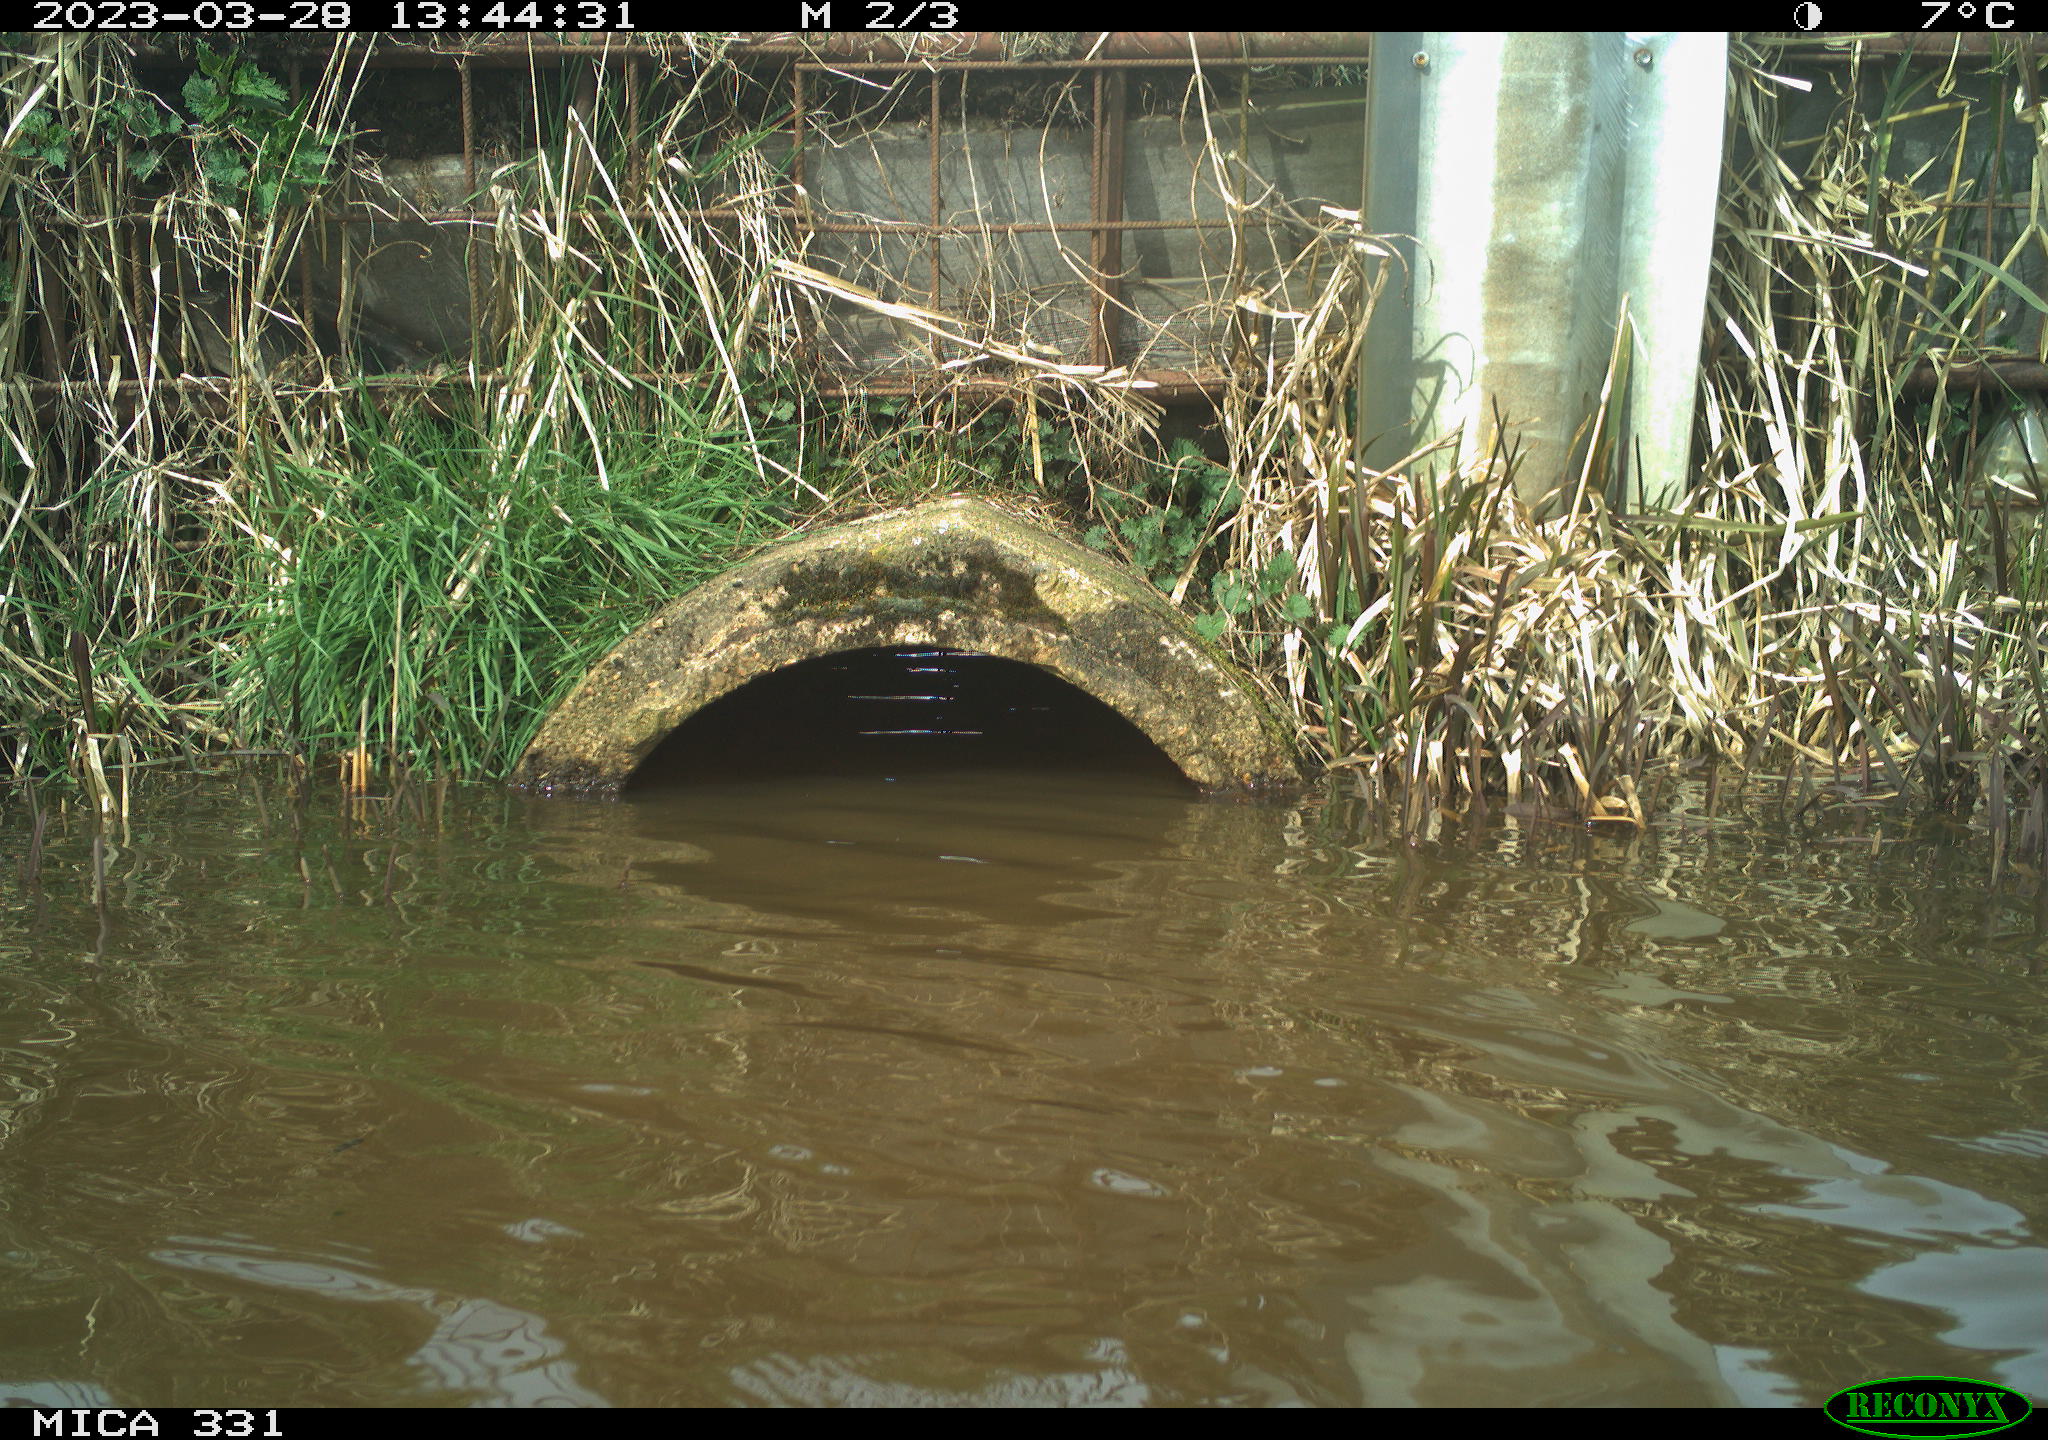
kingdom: Animalia
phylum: Chordata
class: Aves
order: Gruiformes
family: Rallidae
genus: Fulica
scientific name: Fulica atra
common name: Eurasian coot
